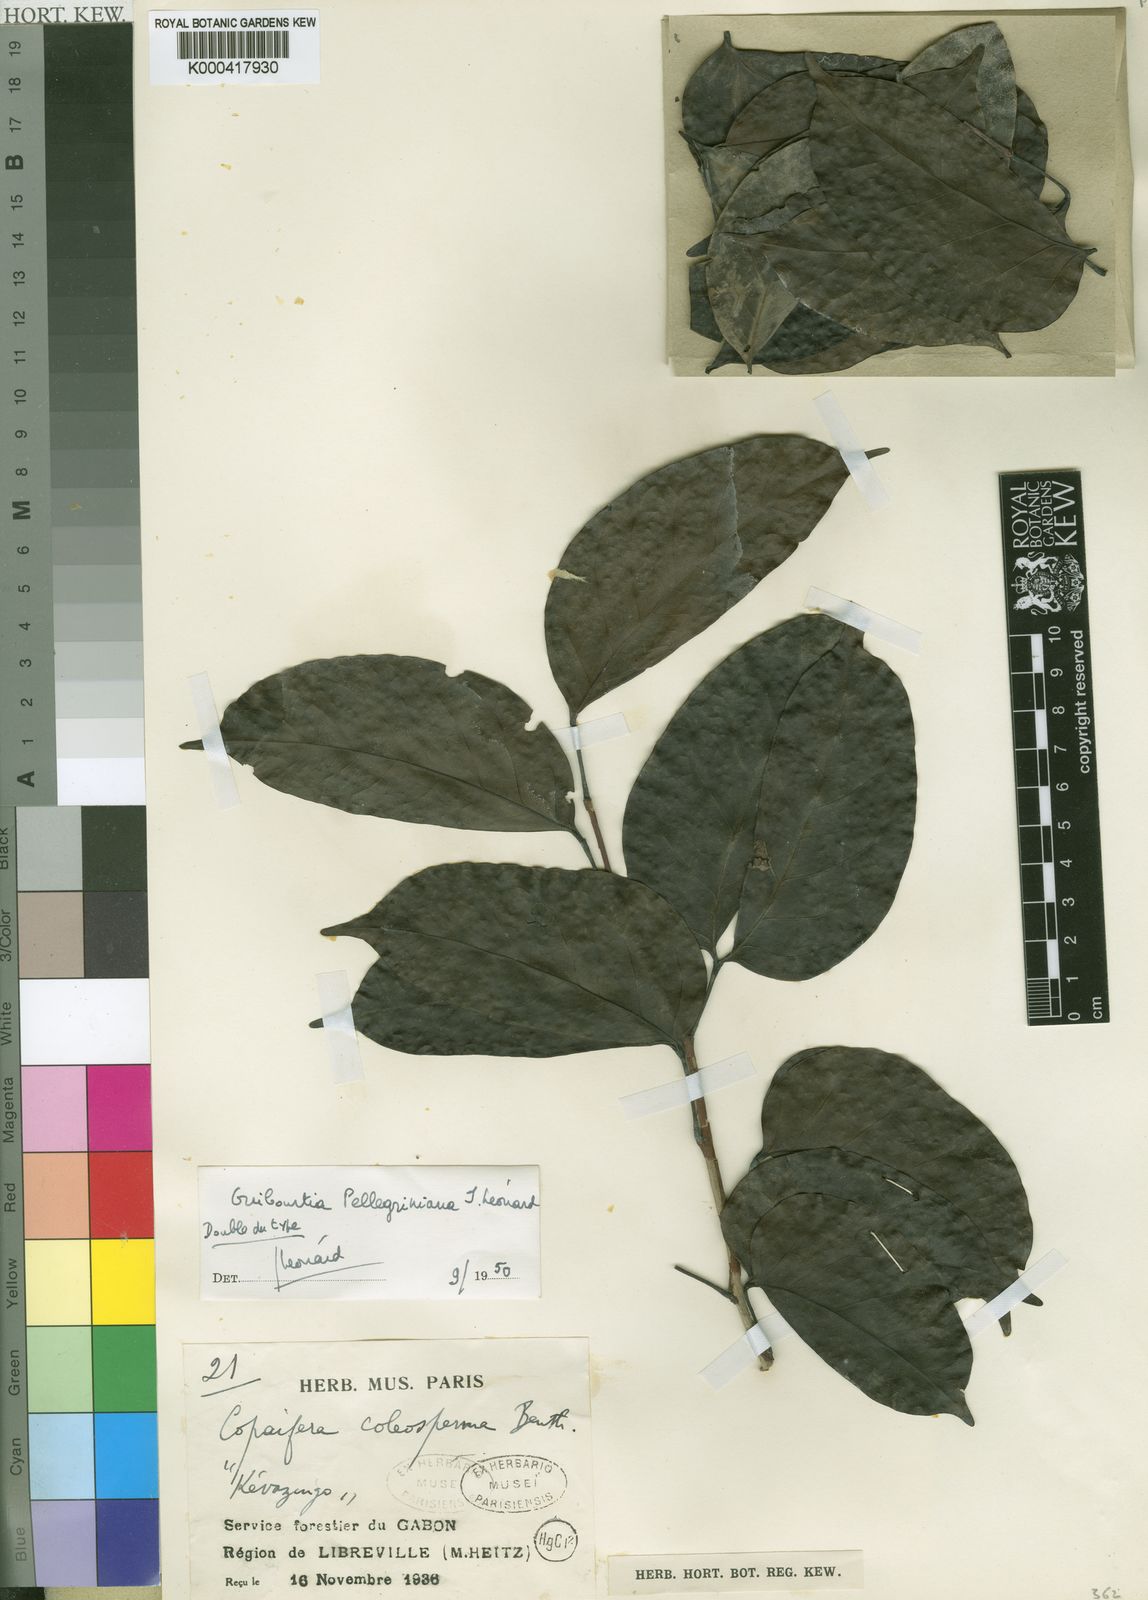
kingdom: Plantae
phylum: Tracheophyta
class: Magnoliopsida
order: Fabales
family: Fabaceae
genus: Guibourtia
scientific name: Guibourtia
